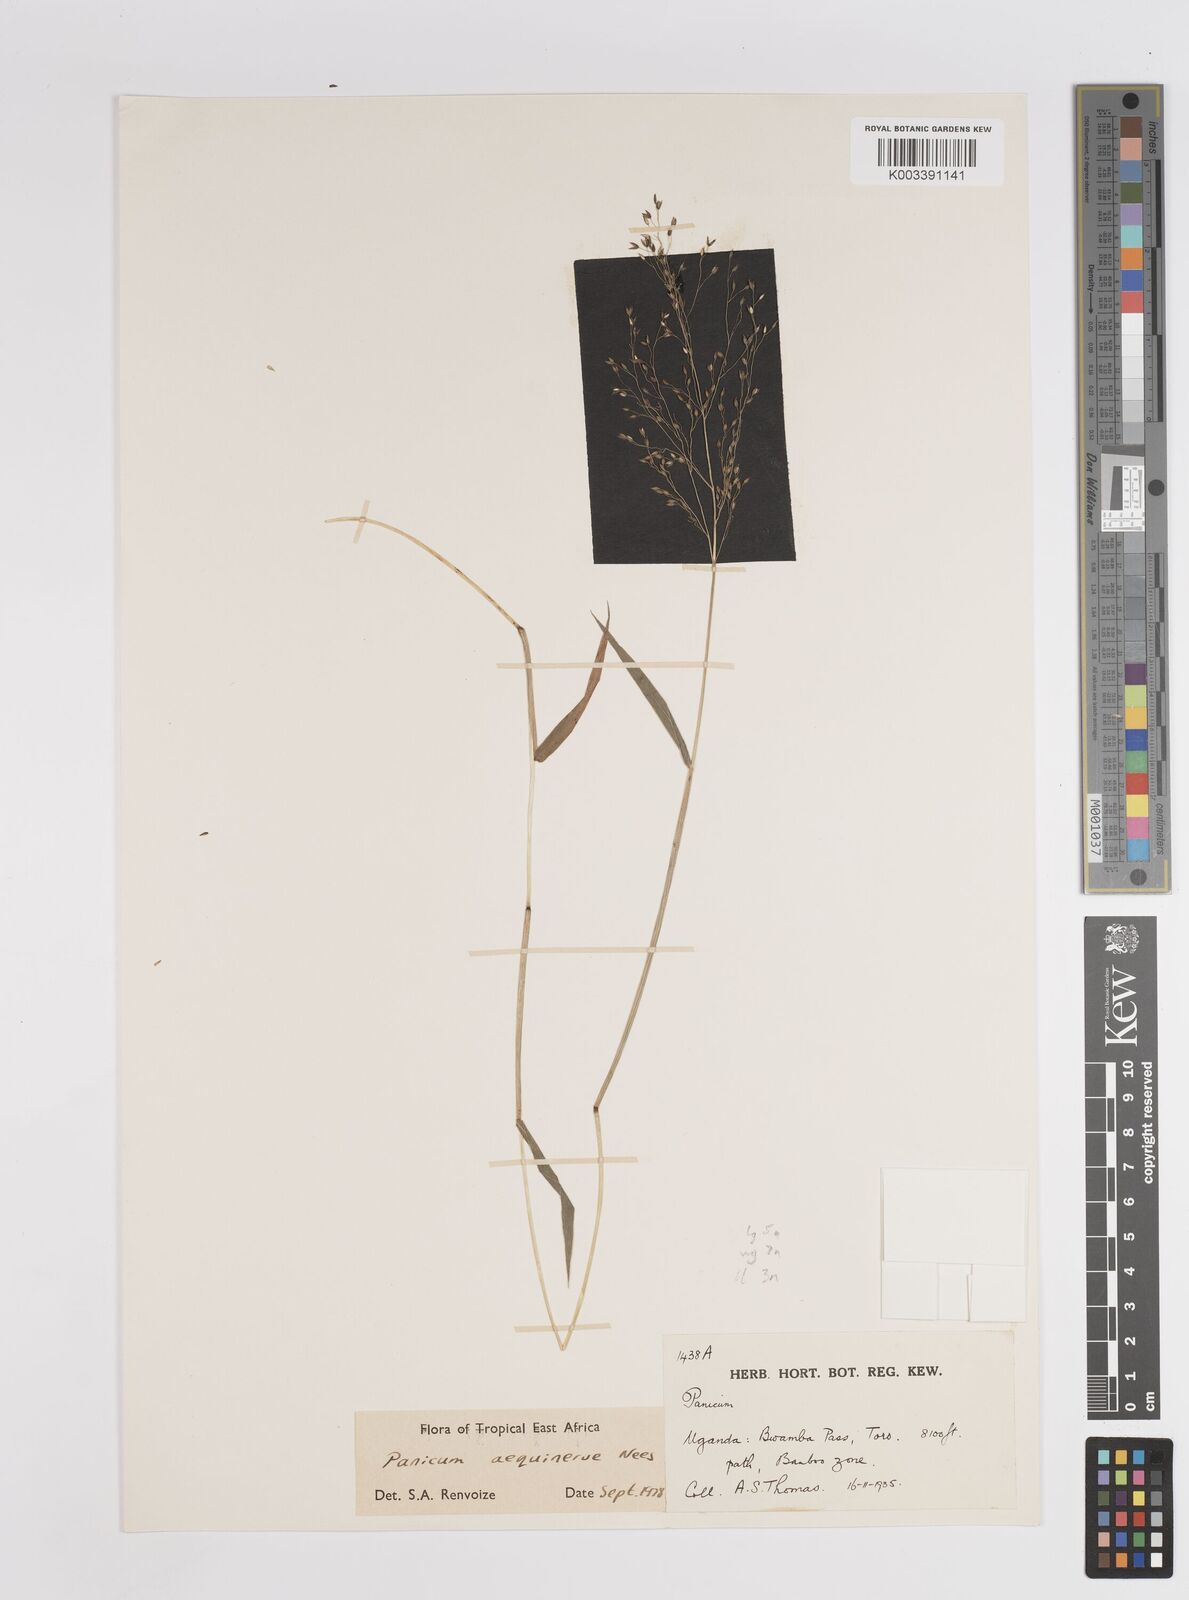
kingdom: Plantae
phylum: Tracheophyta
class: Liliopsida
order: Poales
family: Poaceae
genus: Panicum
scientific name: Panicum aequinerve
